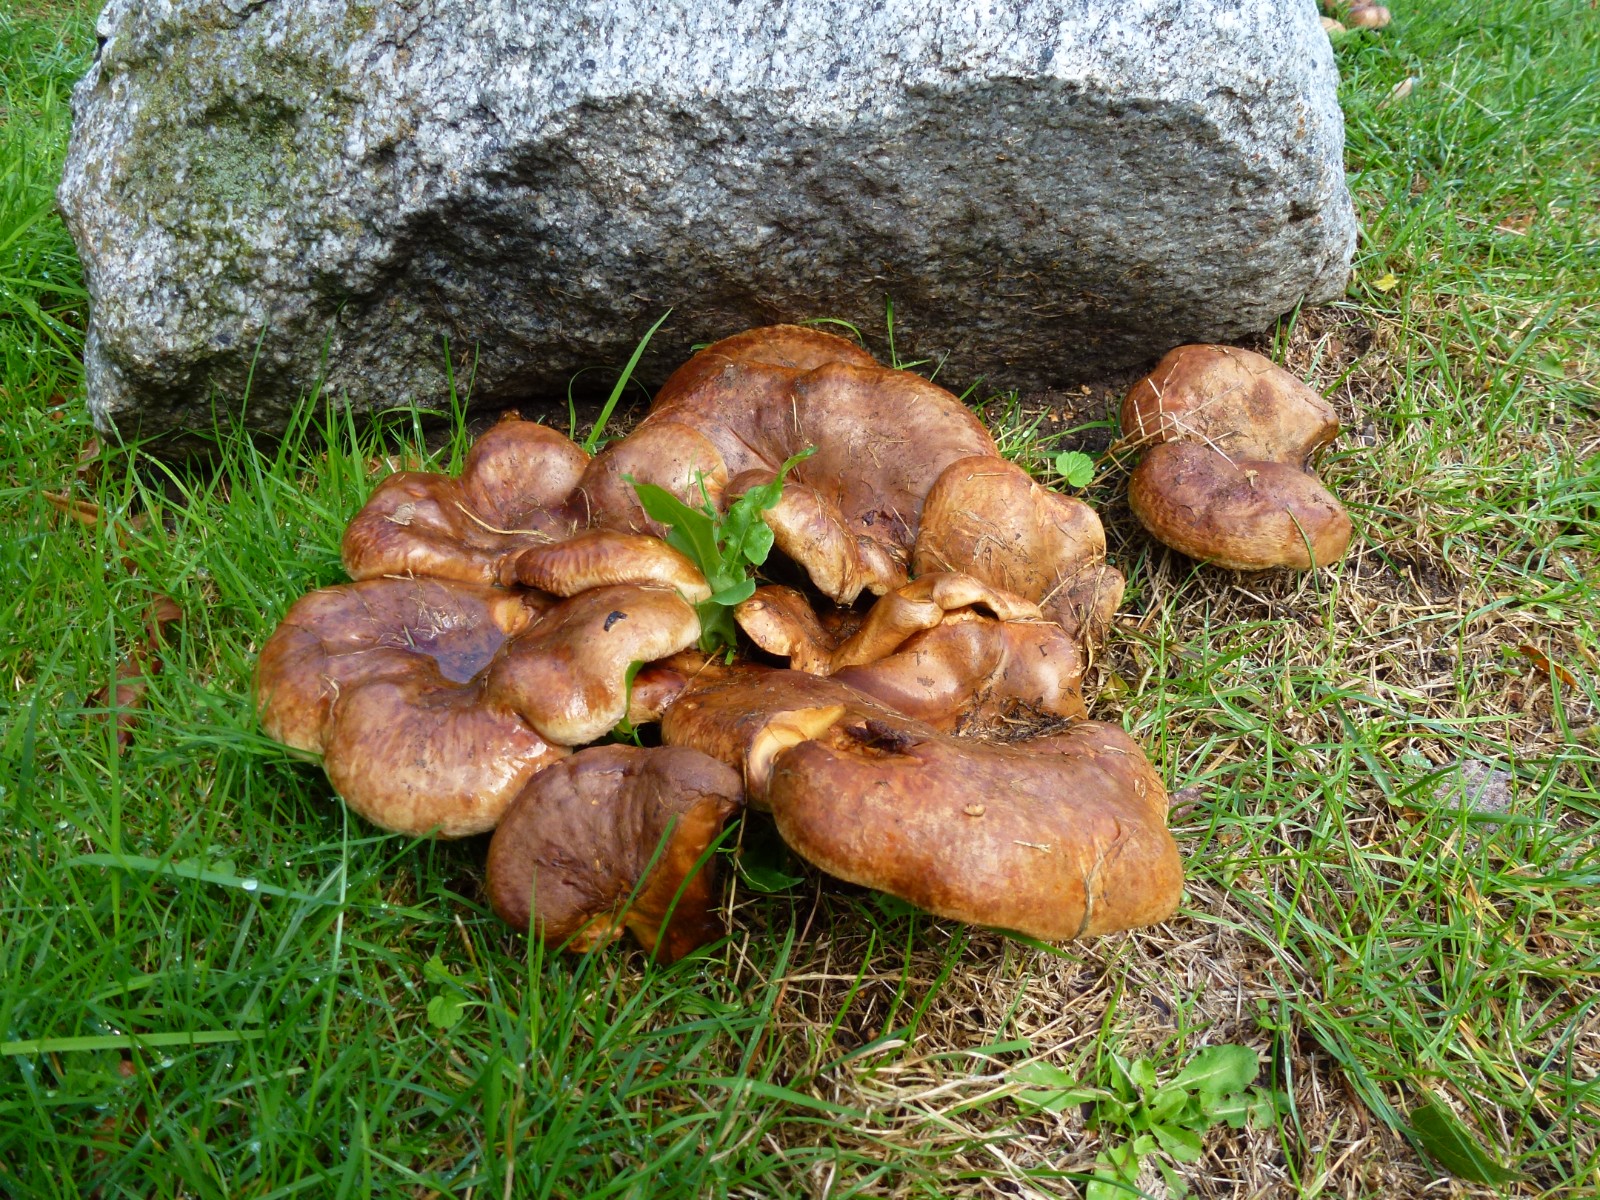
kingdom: Fungi
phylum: Basidiomycota
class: Agaricomycetes
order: Boletales
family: Paxillaceae
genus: Paxillus
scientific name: Paxillus
